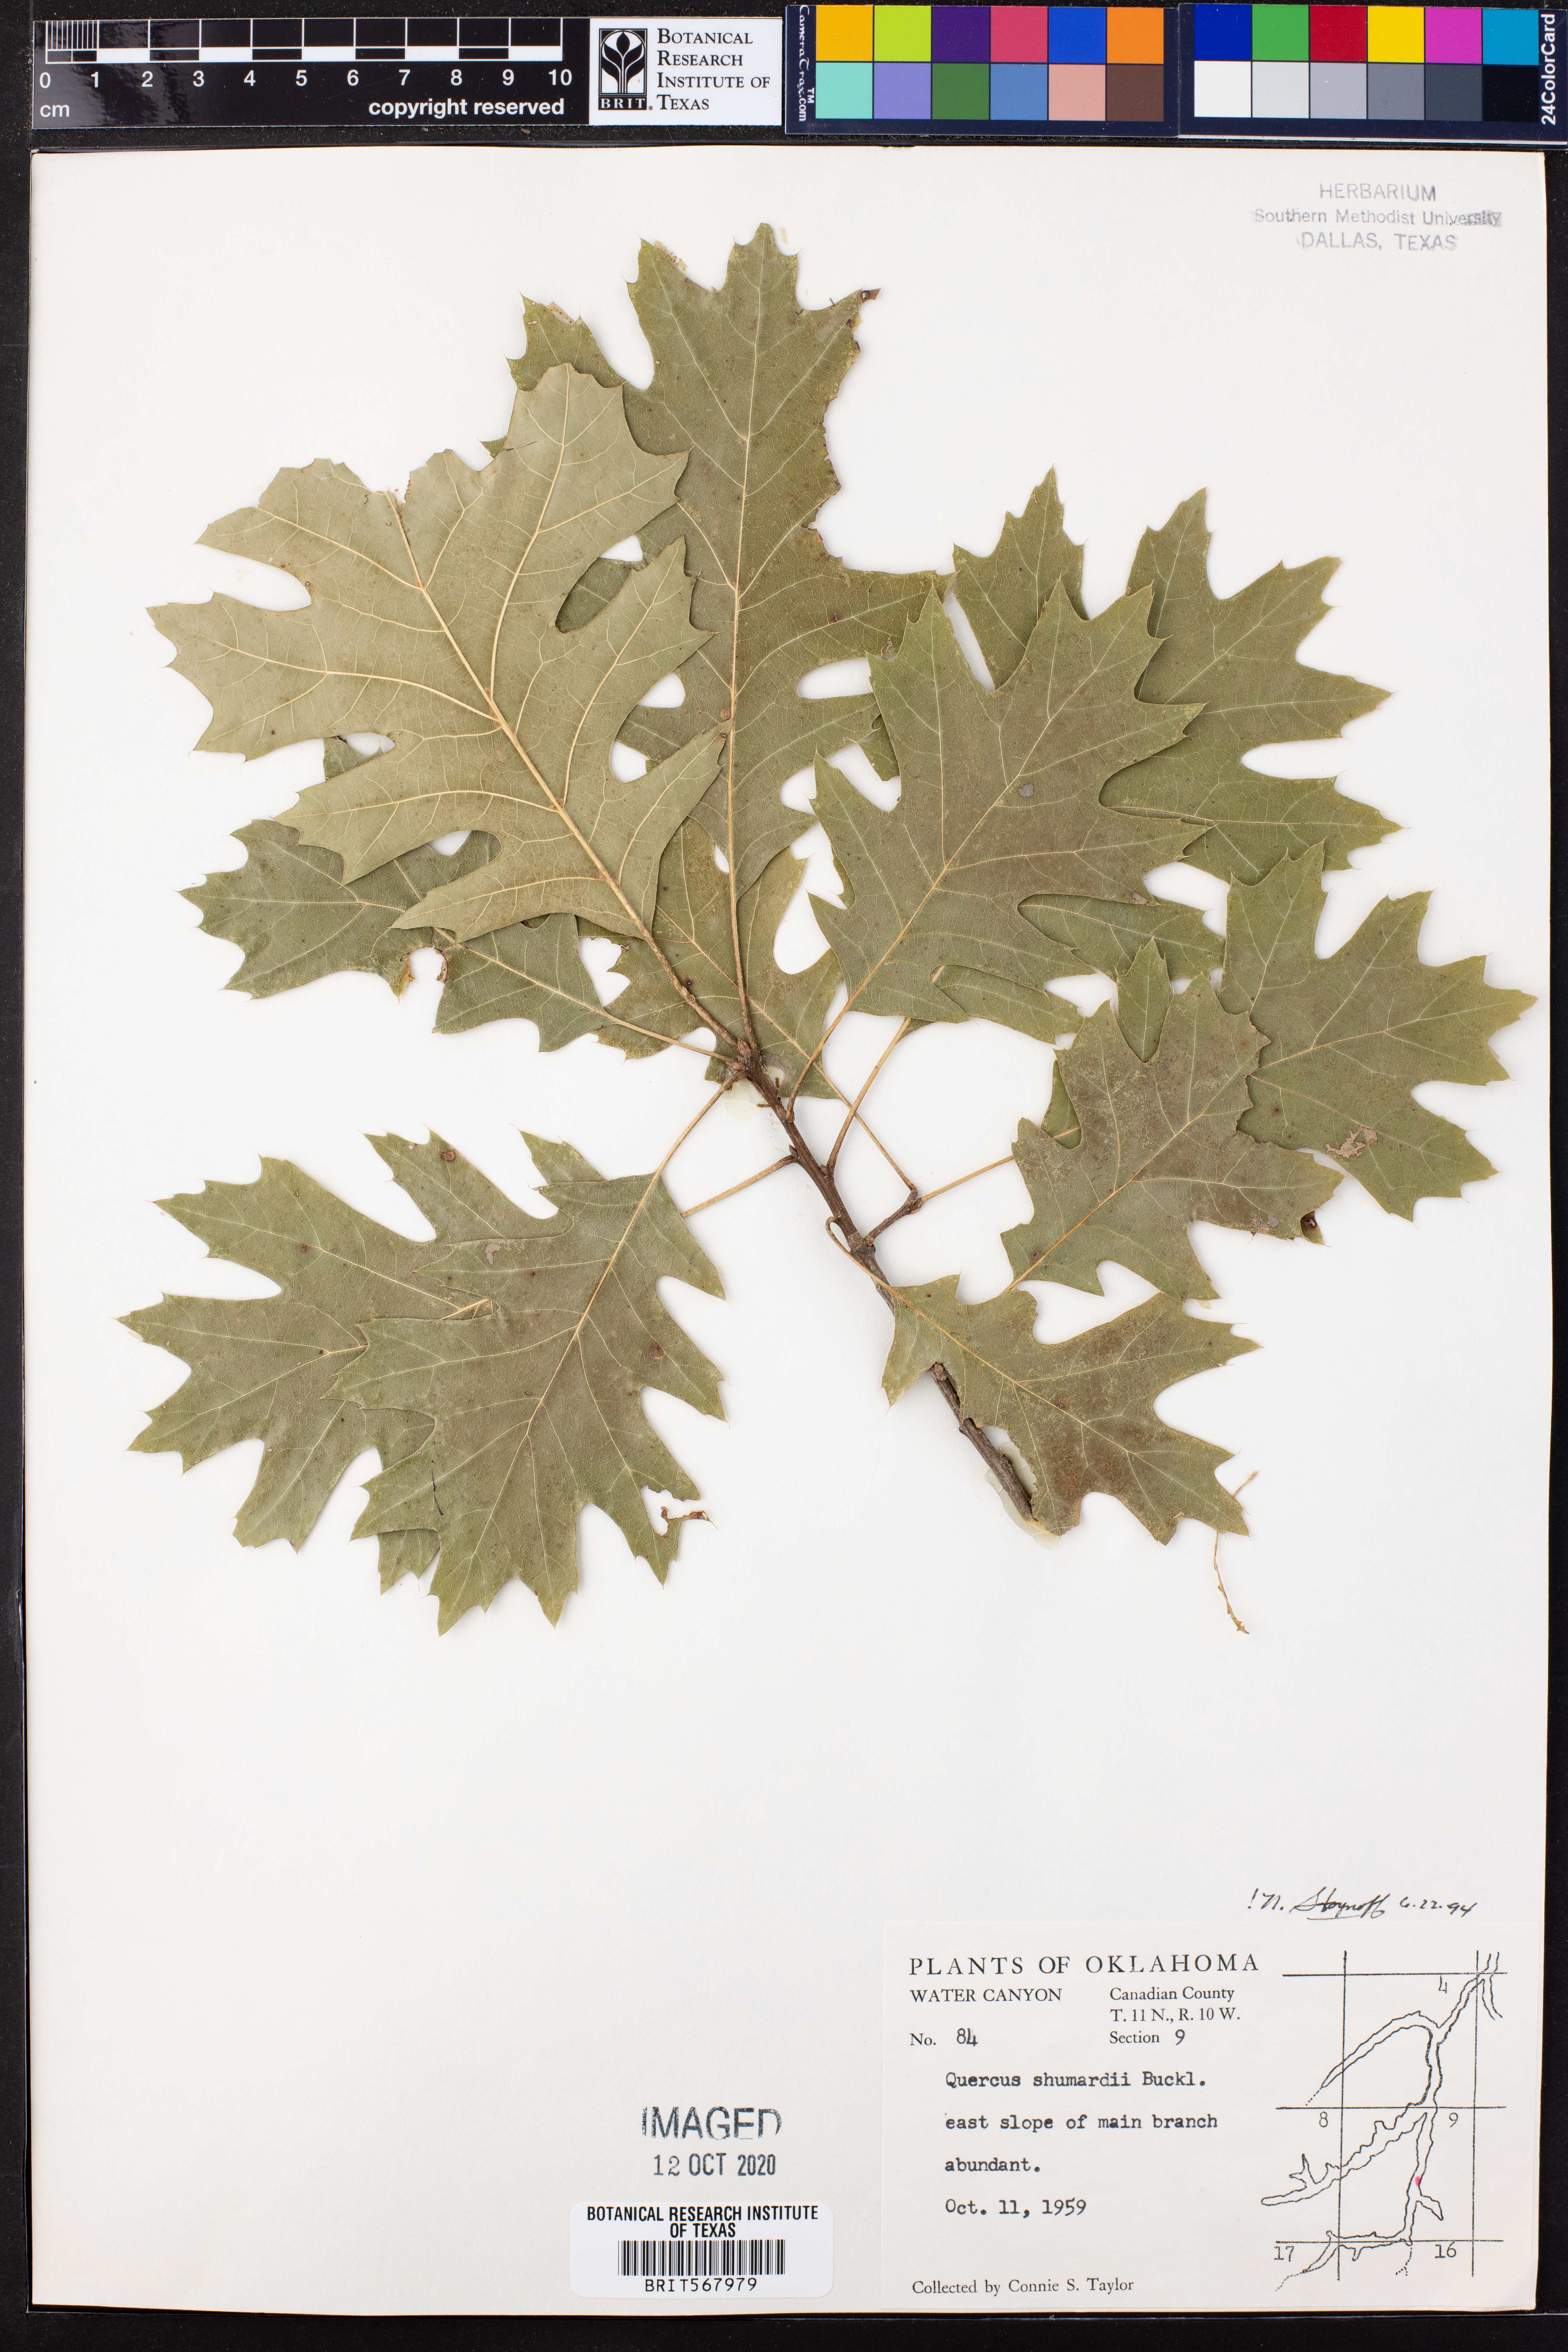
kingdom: Plantae
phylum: Tracheophyta
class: Magnoliopsida
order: Fagales
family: Fagaceae
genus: Quercus
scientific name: Quercus shumardii
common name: Shumard oak
